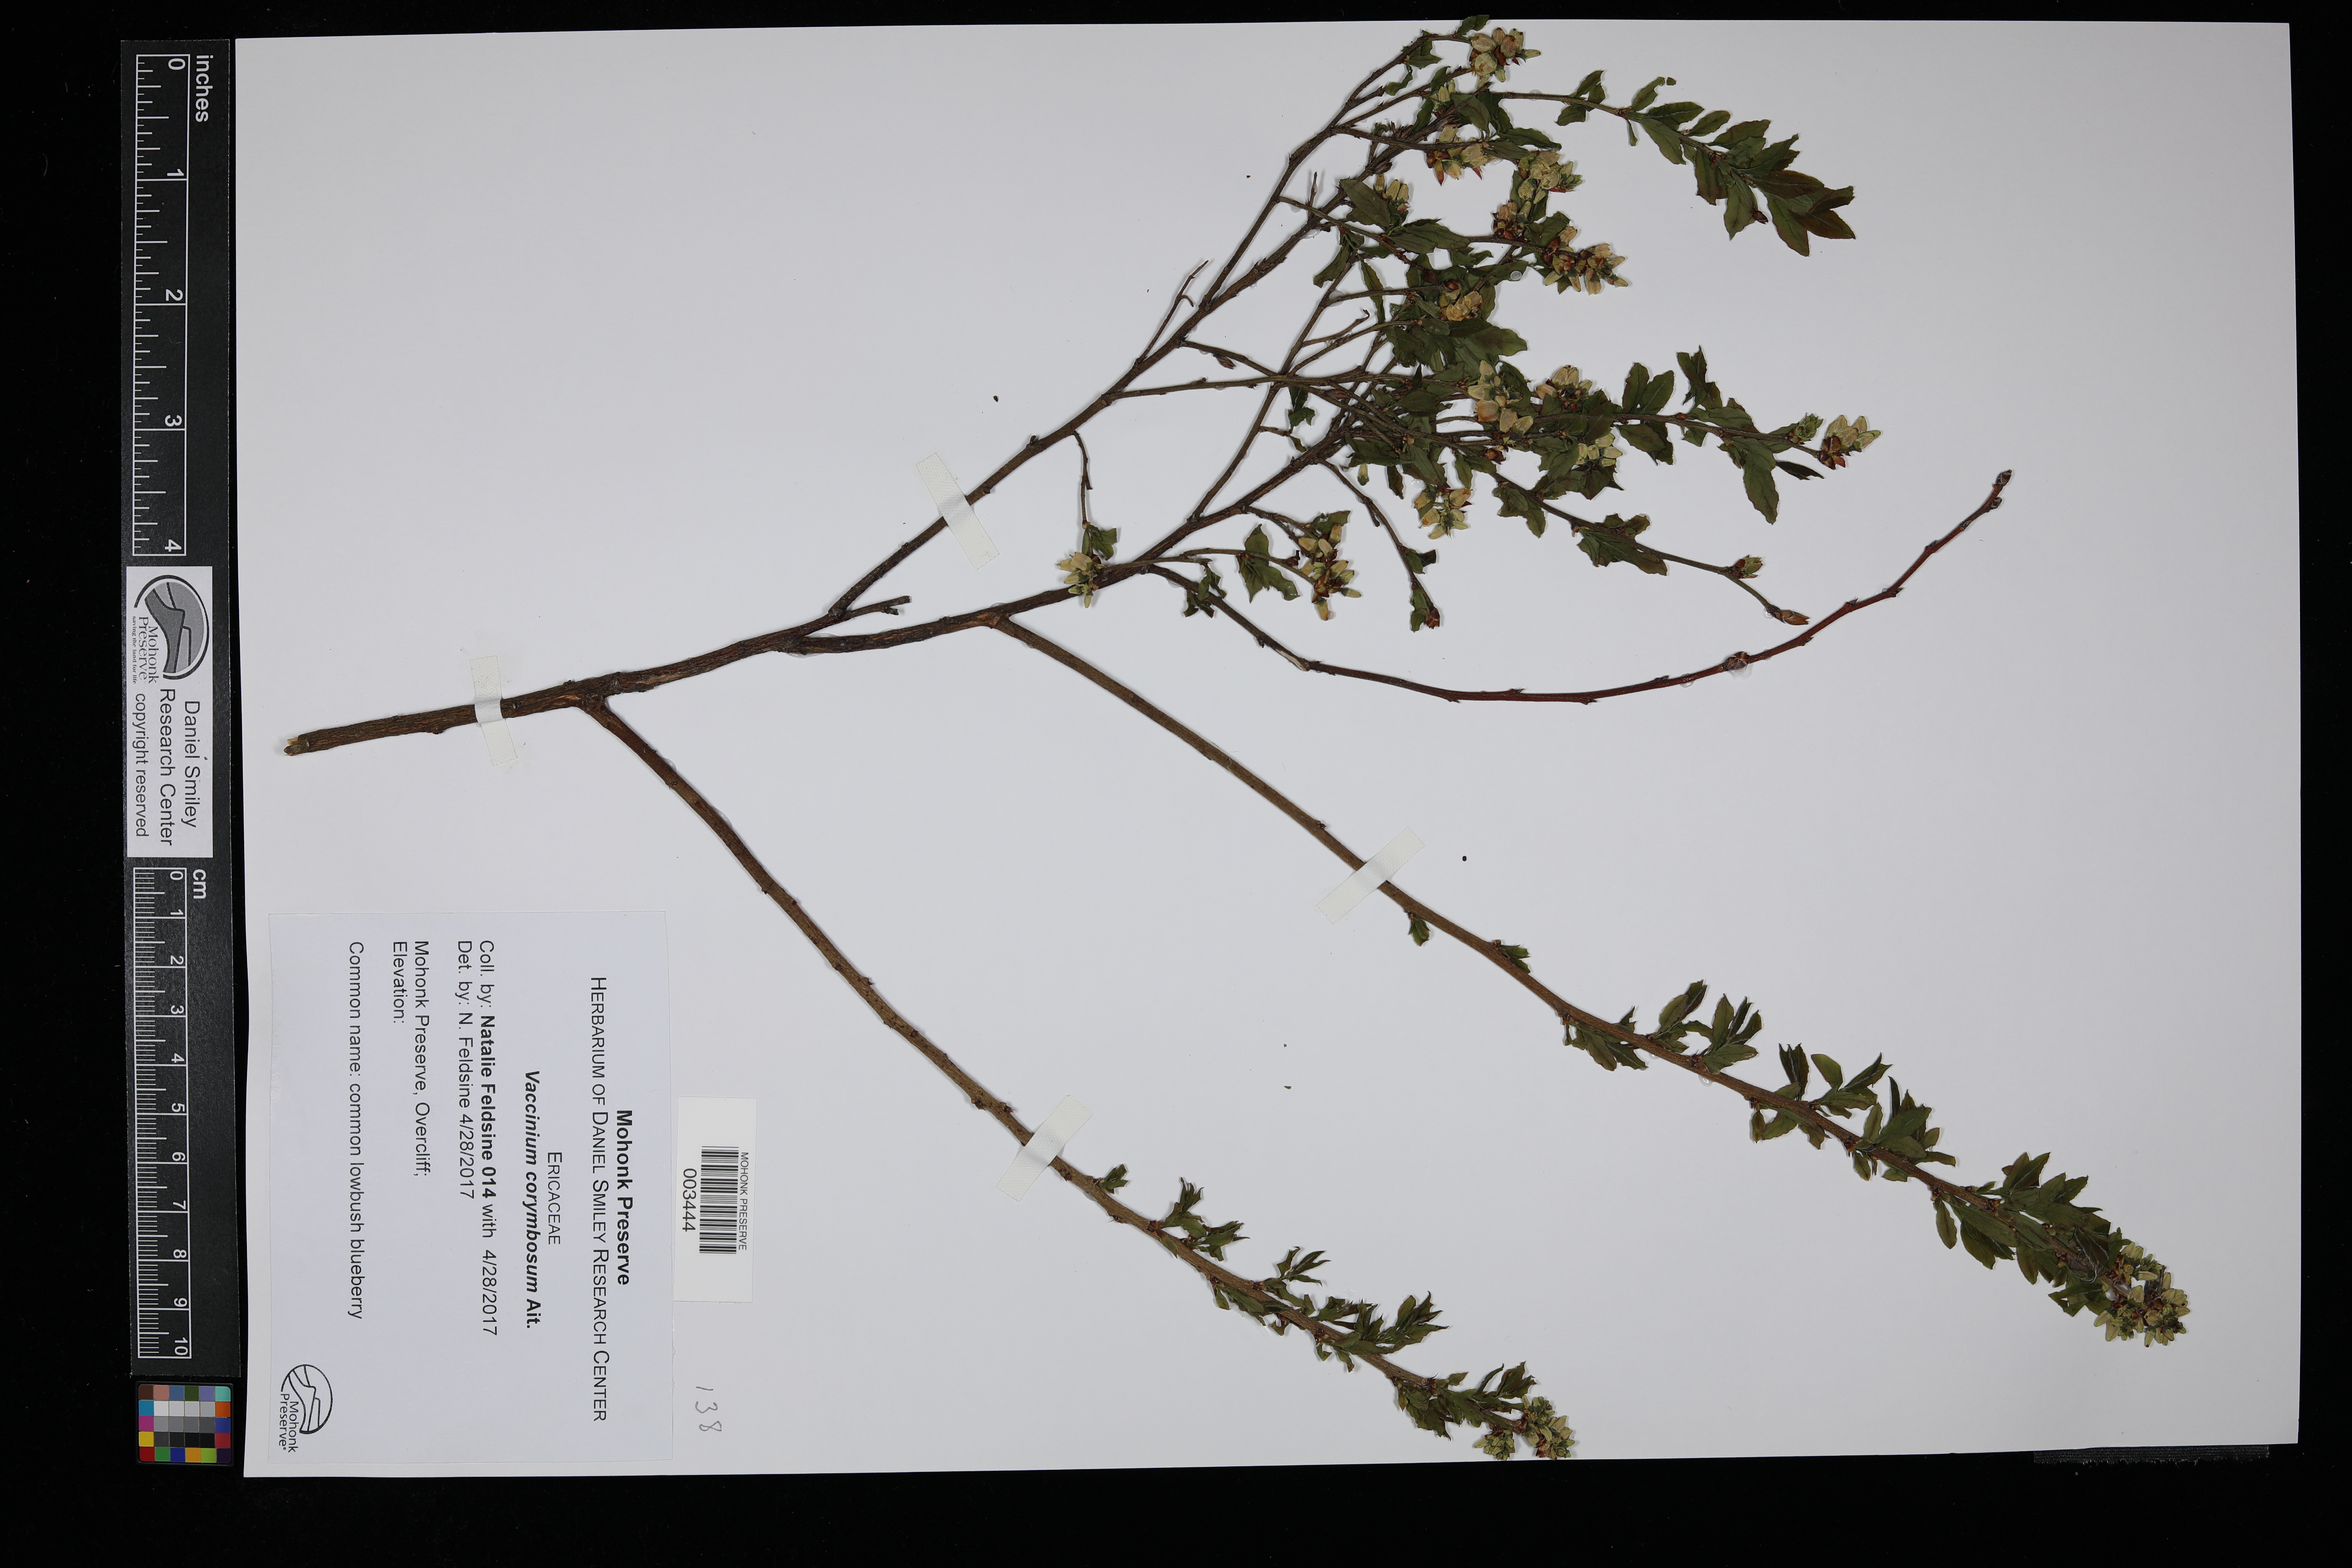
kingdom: Plantae
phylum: Tracheophyta
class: Magnoliopsida
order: Ericales
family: Ericaceae
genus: Vaccinium
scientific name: Vaccinium corymbosum
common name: Blueberry
